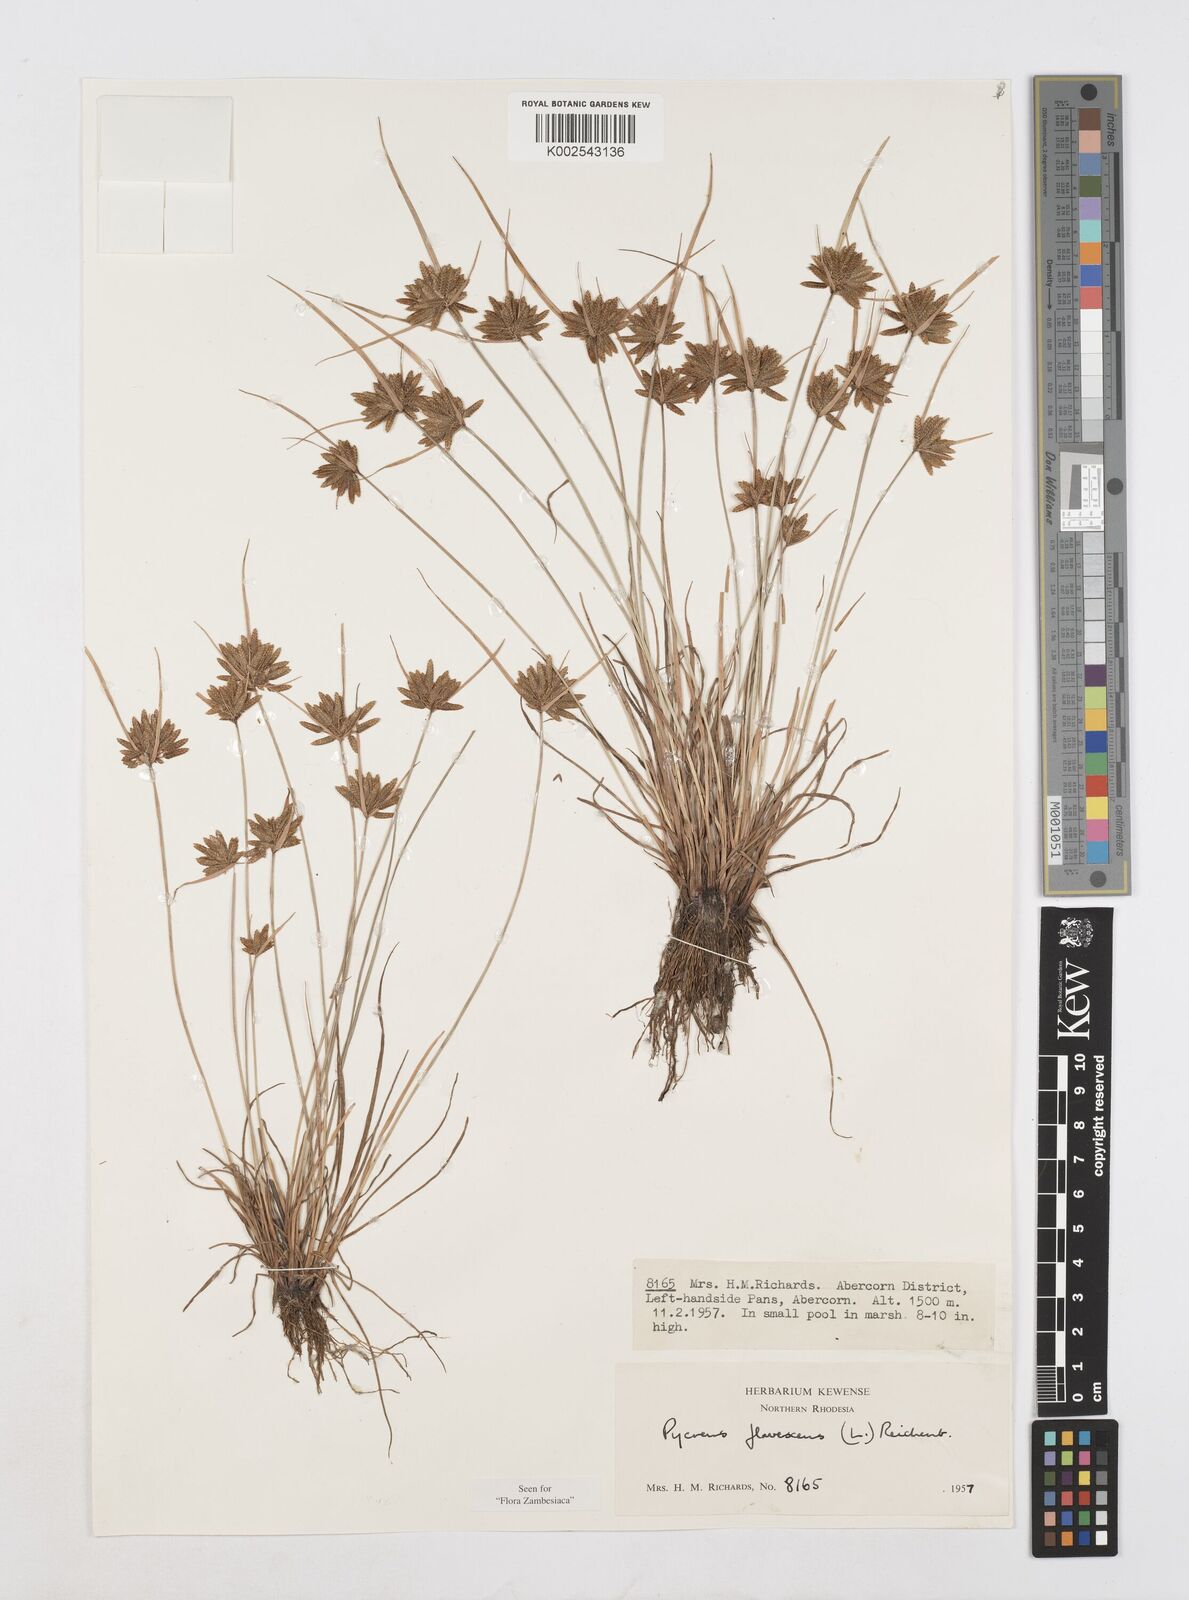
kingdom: Plantae
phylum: Tracheophyta
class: Liliopsida
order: Poales
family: Cyperaceae
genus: Cyperus
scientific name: Cyperus flavescens
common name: Yellow galingale
